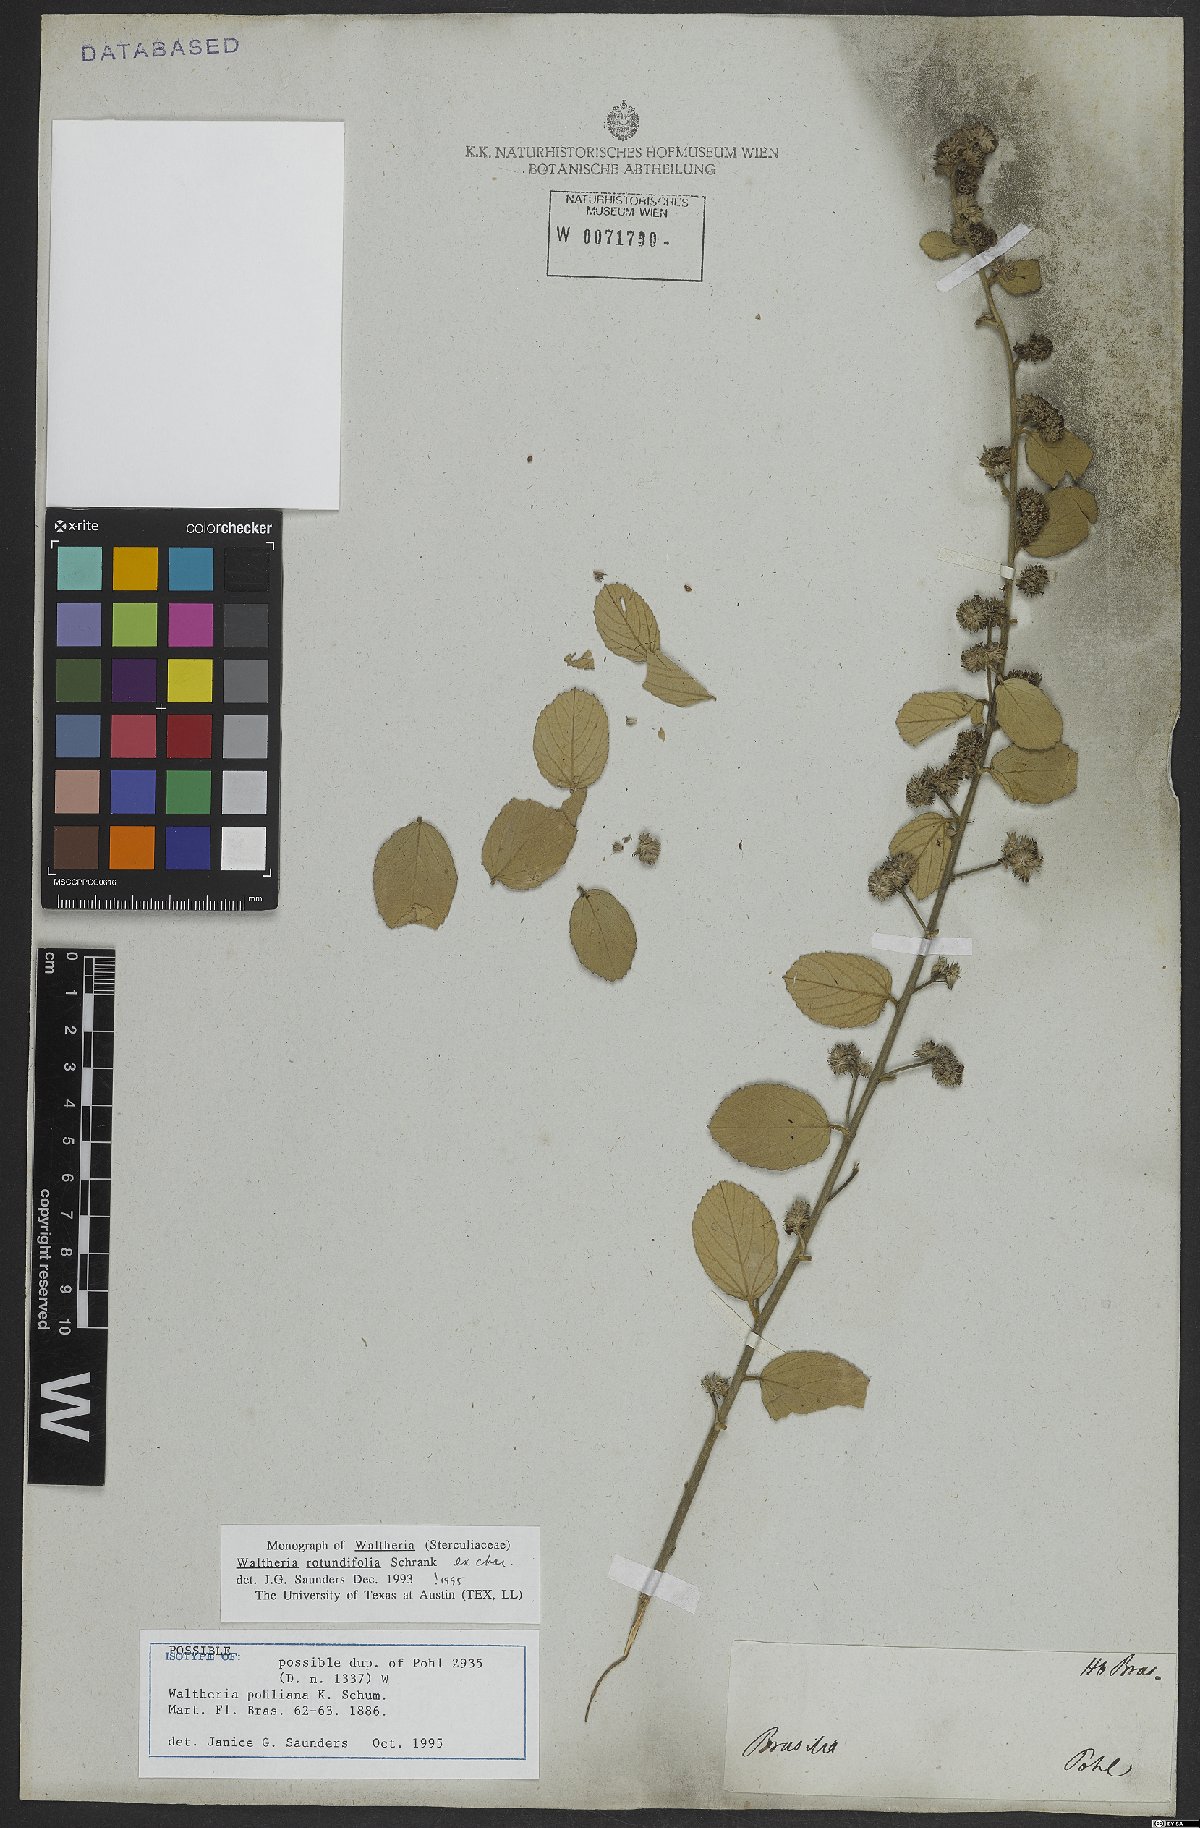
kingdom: Plantae
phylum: Tracheophyta
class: Magnoliopsida
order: Malvales
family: Malvaceae
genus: Waltheria
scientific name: Waltheria rotundifolia
